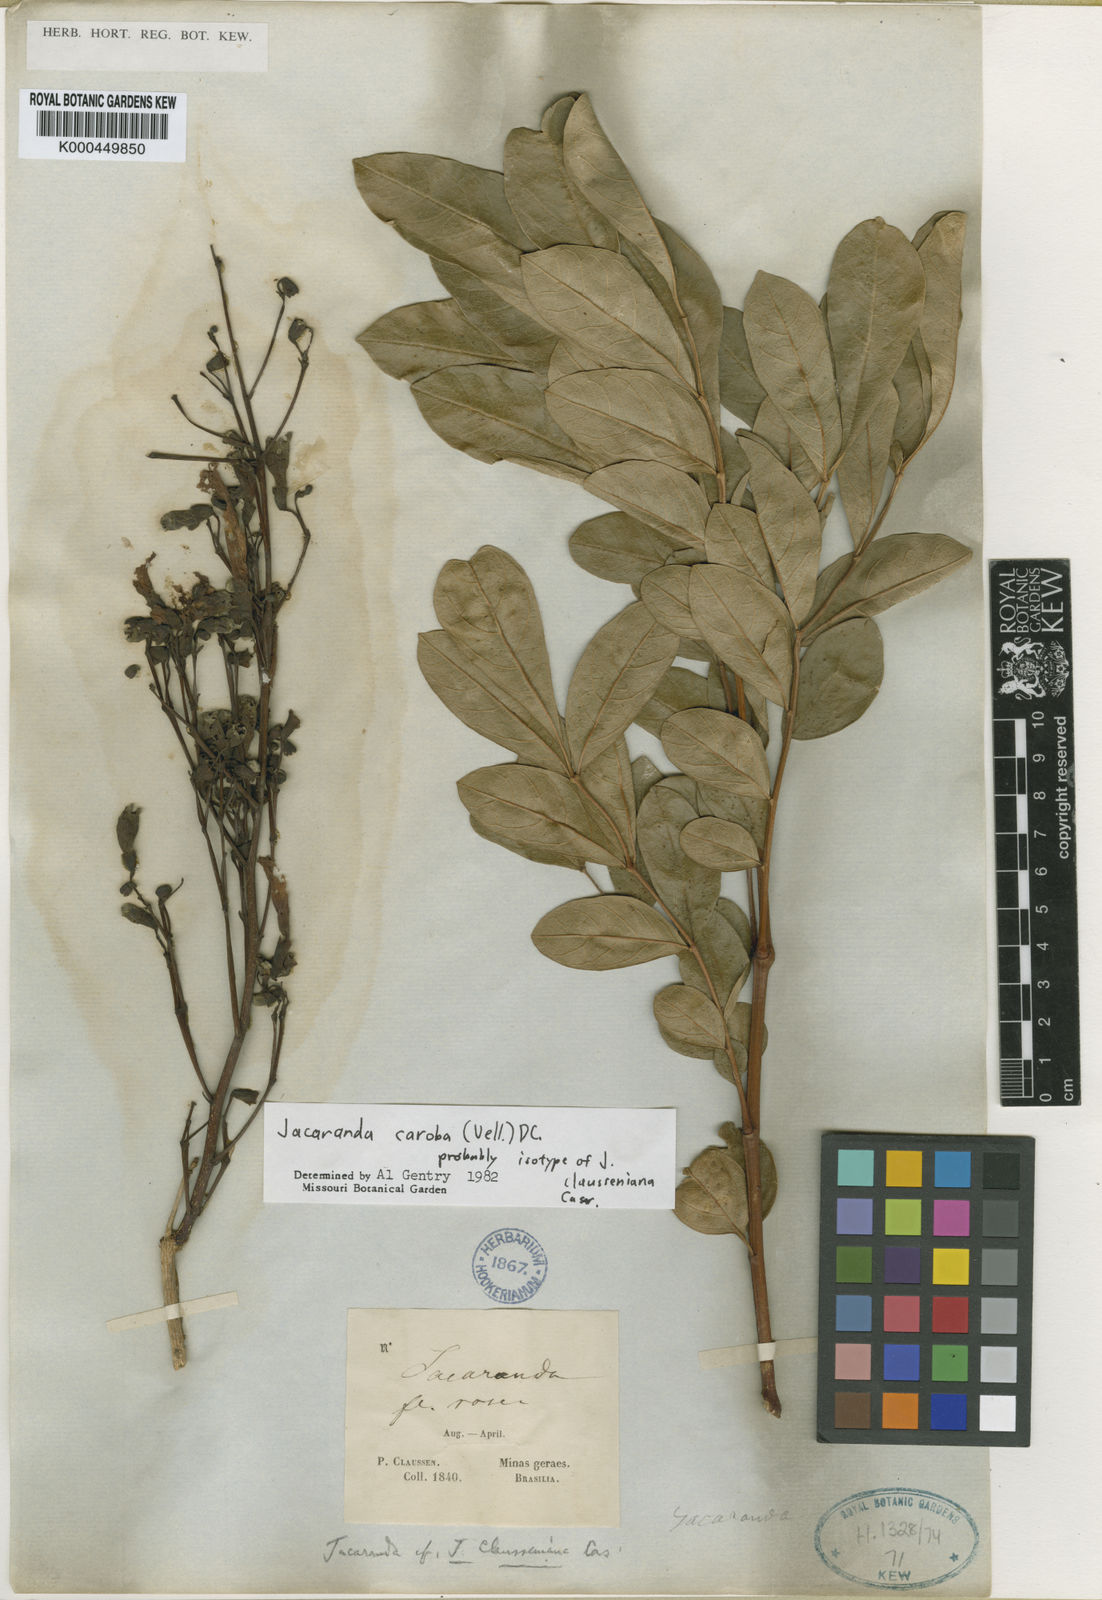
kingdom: Plantae
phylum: Tracheophyta
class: Magnoliopsida
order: Lamiales
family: Bignoniaceae
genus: Jacaranda
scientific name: Jacaranda caroba
